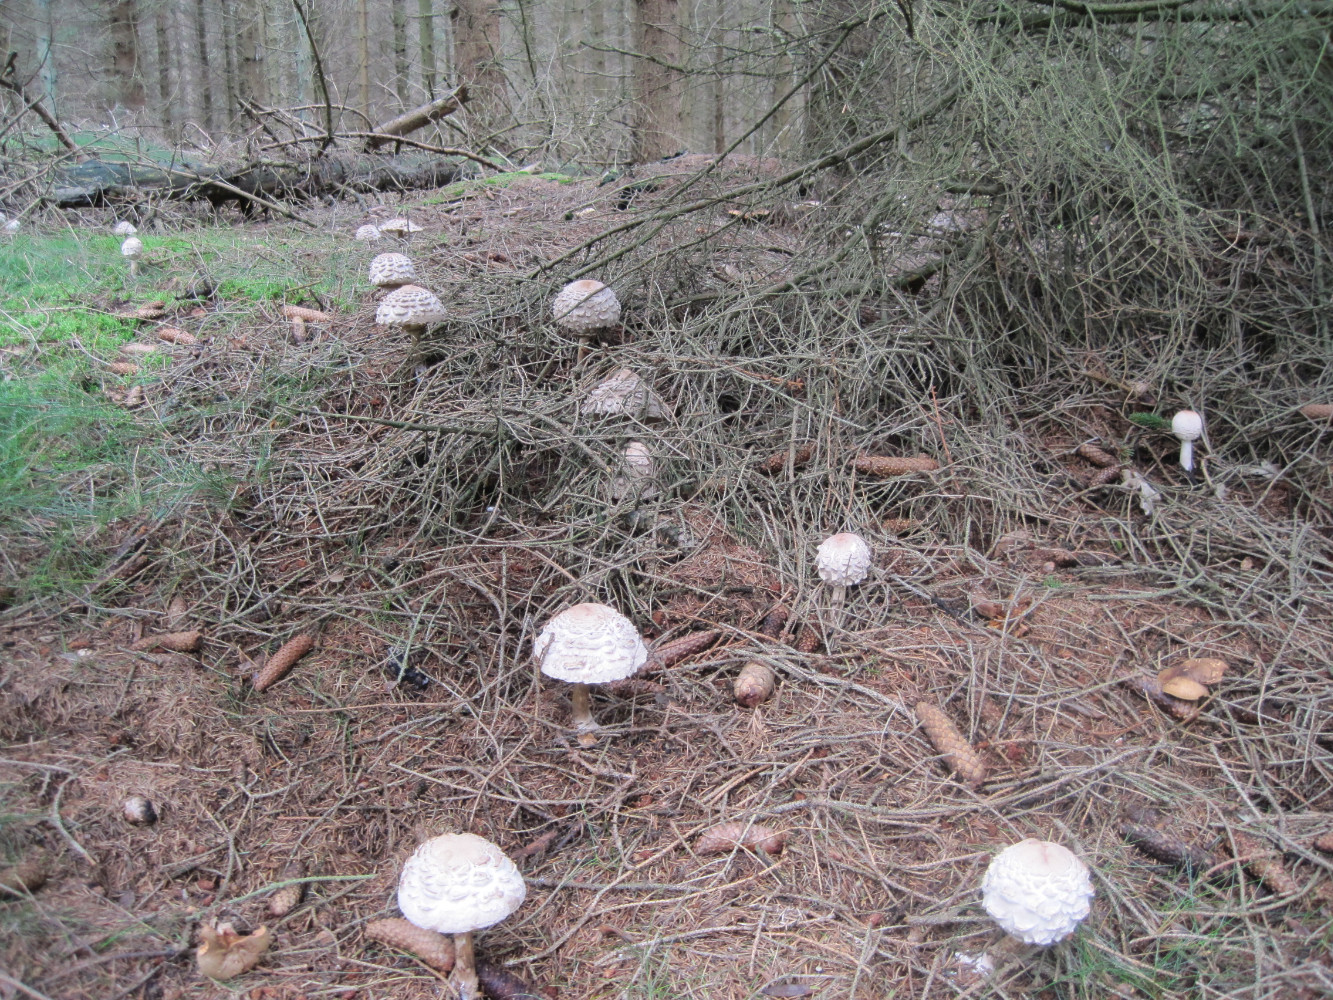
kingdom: Fungi
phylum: Basidiomycota
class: Agaricomycetes
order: Agaricales
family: Agaricaceae
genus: Chlorophyllum
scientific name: Chlorophyllum olivieri
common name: almindelig rabarberhat
